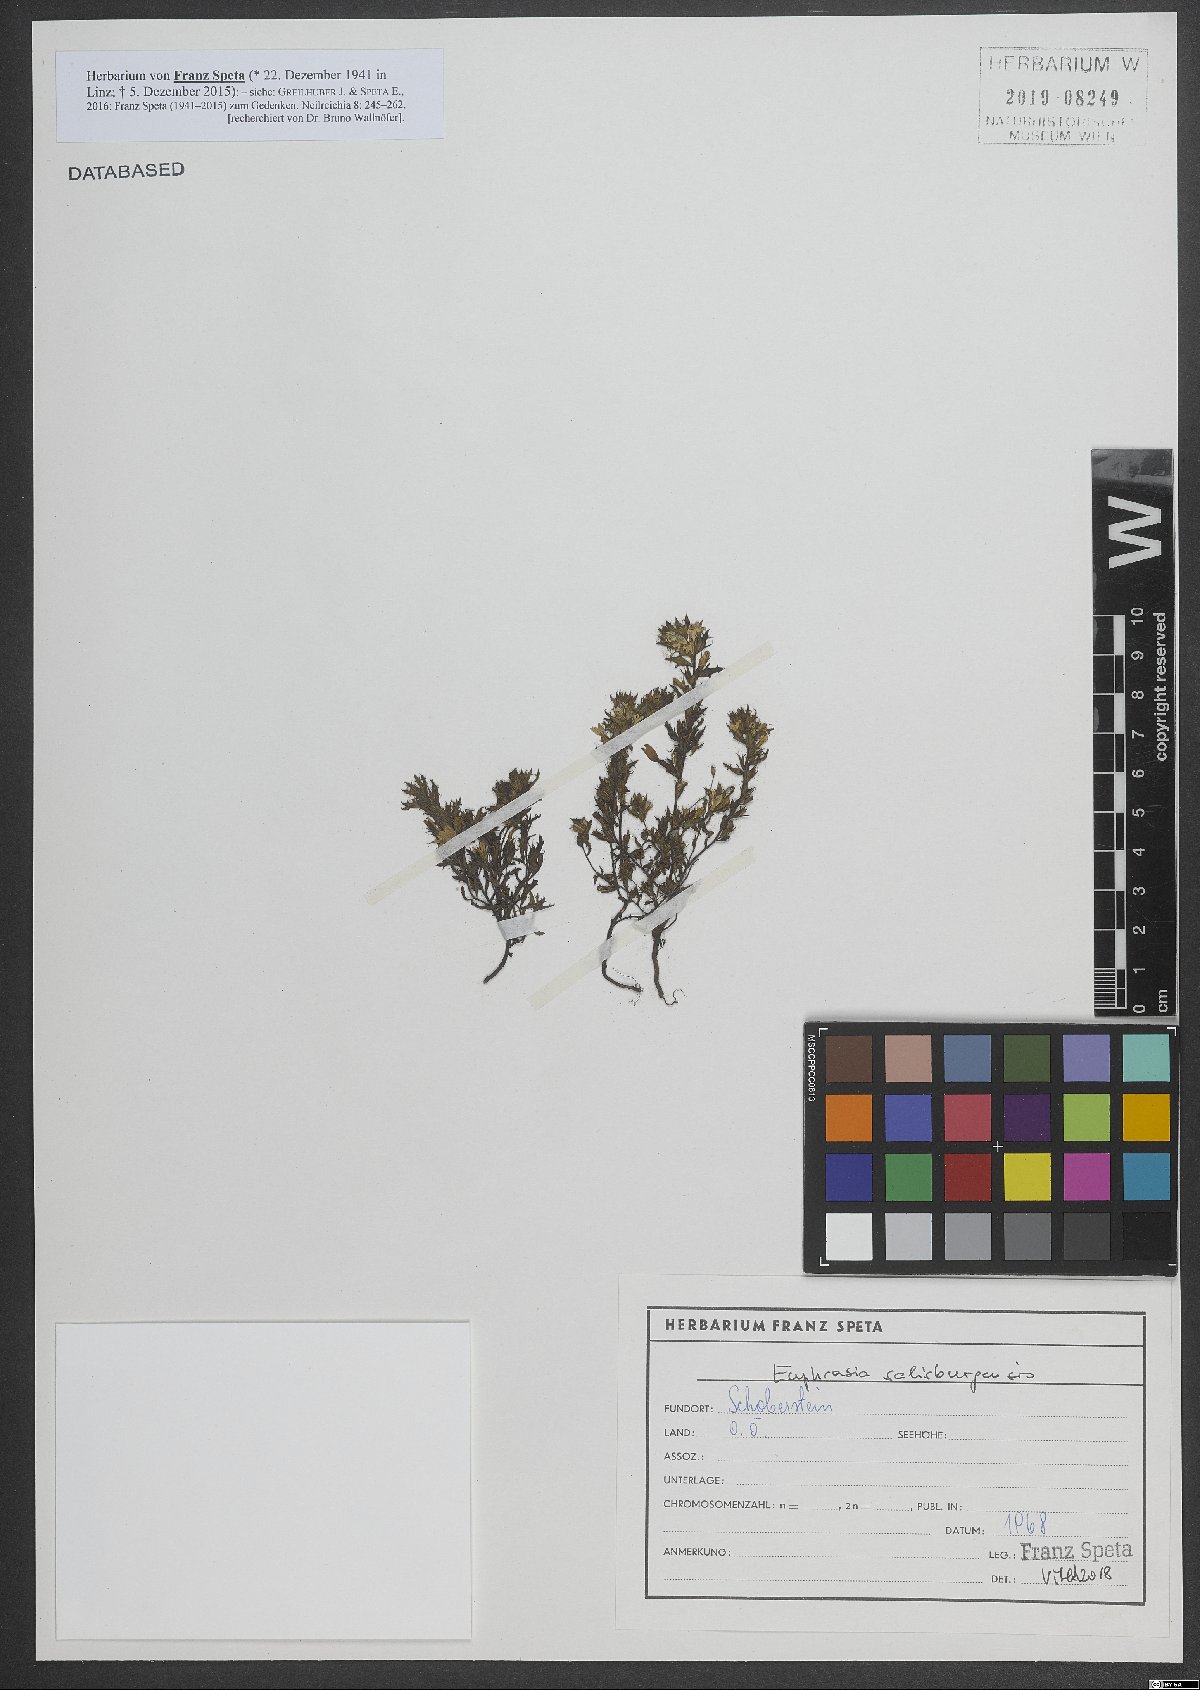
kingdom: Plantae
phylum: Tracheophyta
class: Magnoliopsida
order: Lamiales
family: Orobanchaceae
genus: Euphrasia
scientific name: Euphrasia salisburgensis
